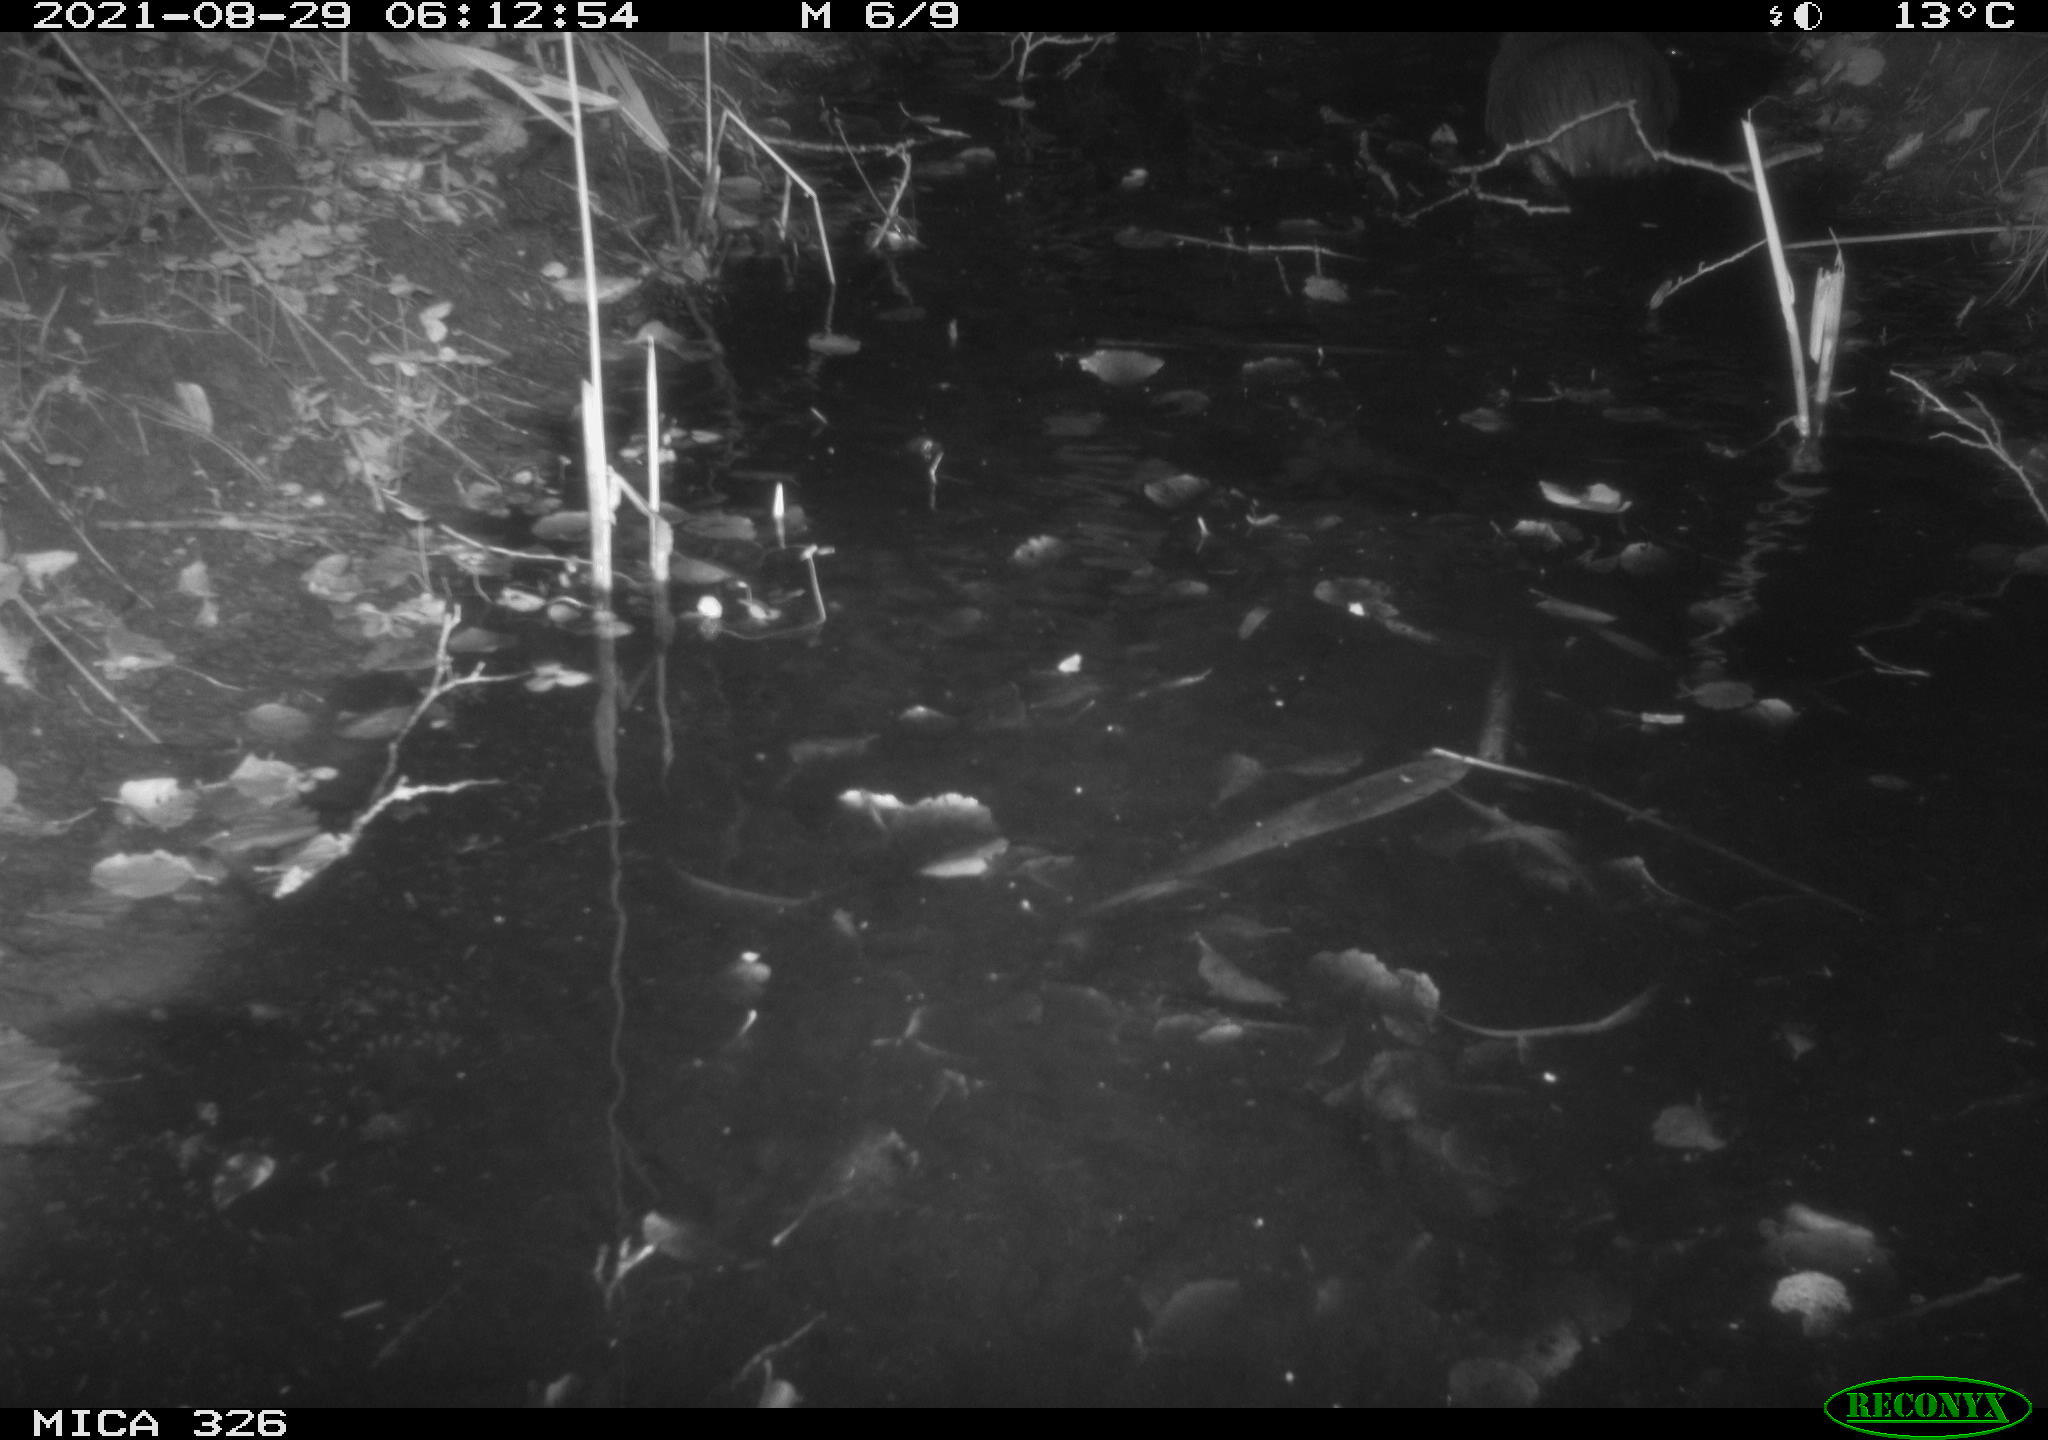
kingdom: Animalia
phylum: Chordata
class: Mammalia
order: Rodentia
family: Myocastoridae
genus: Myocastor
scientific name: Myocastor coypus
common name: Coypu
